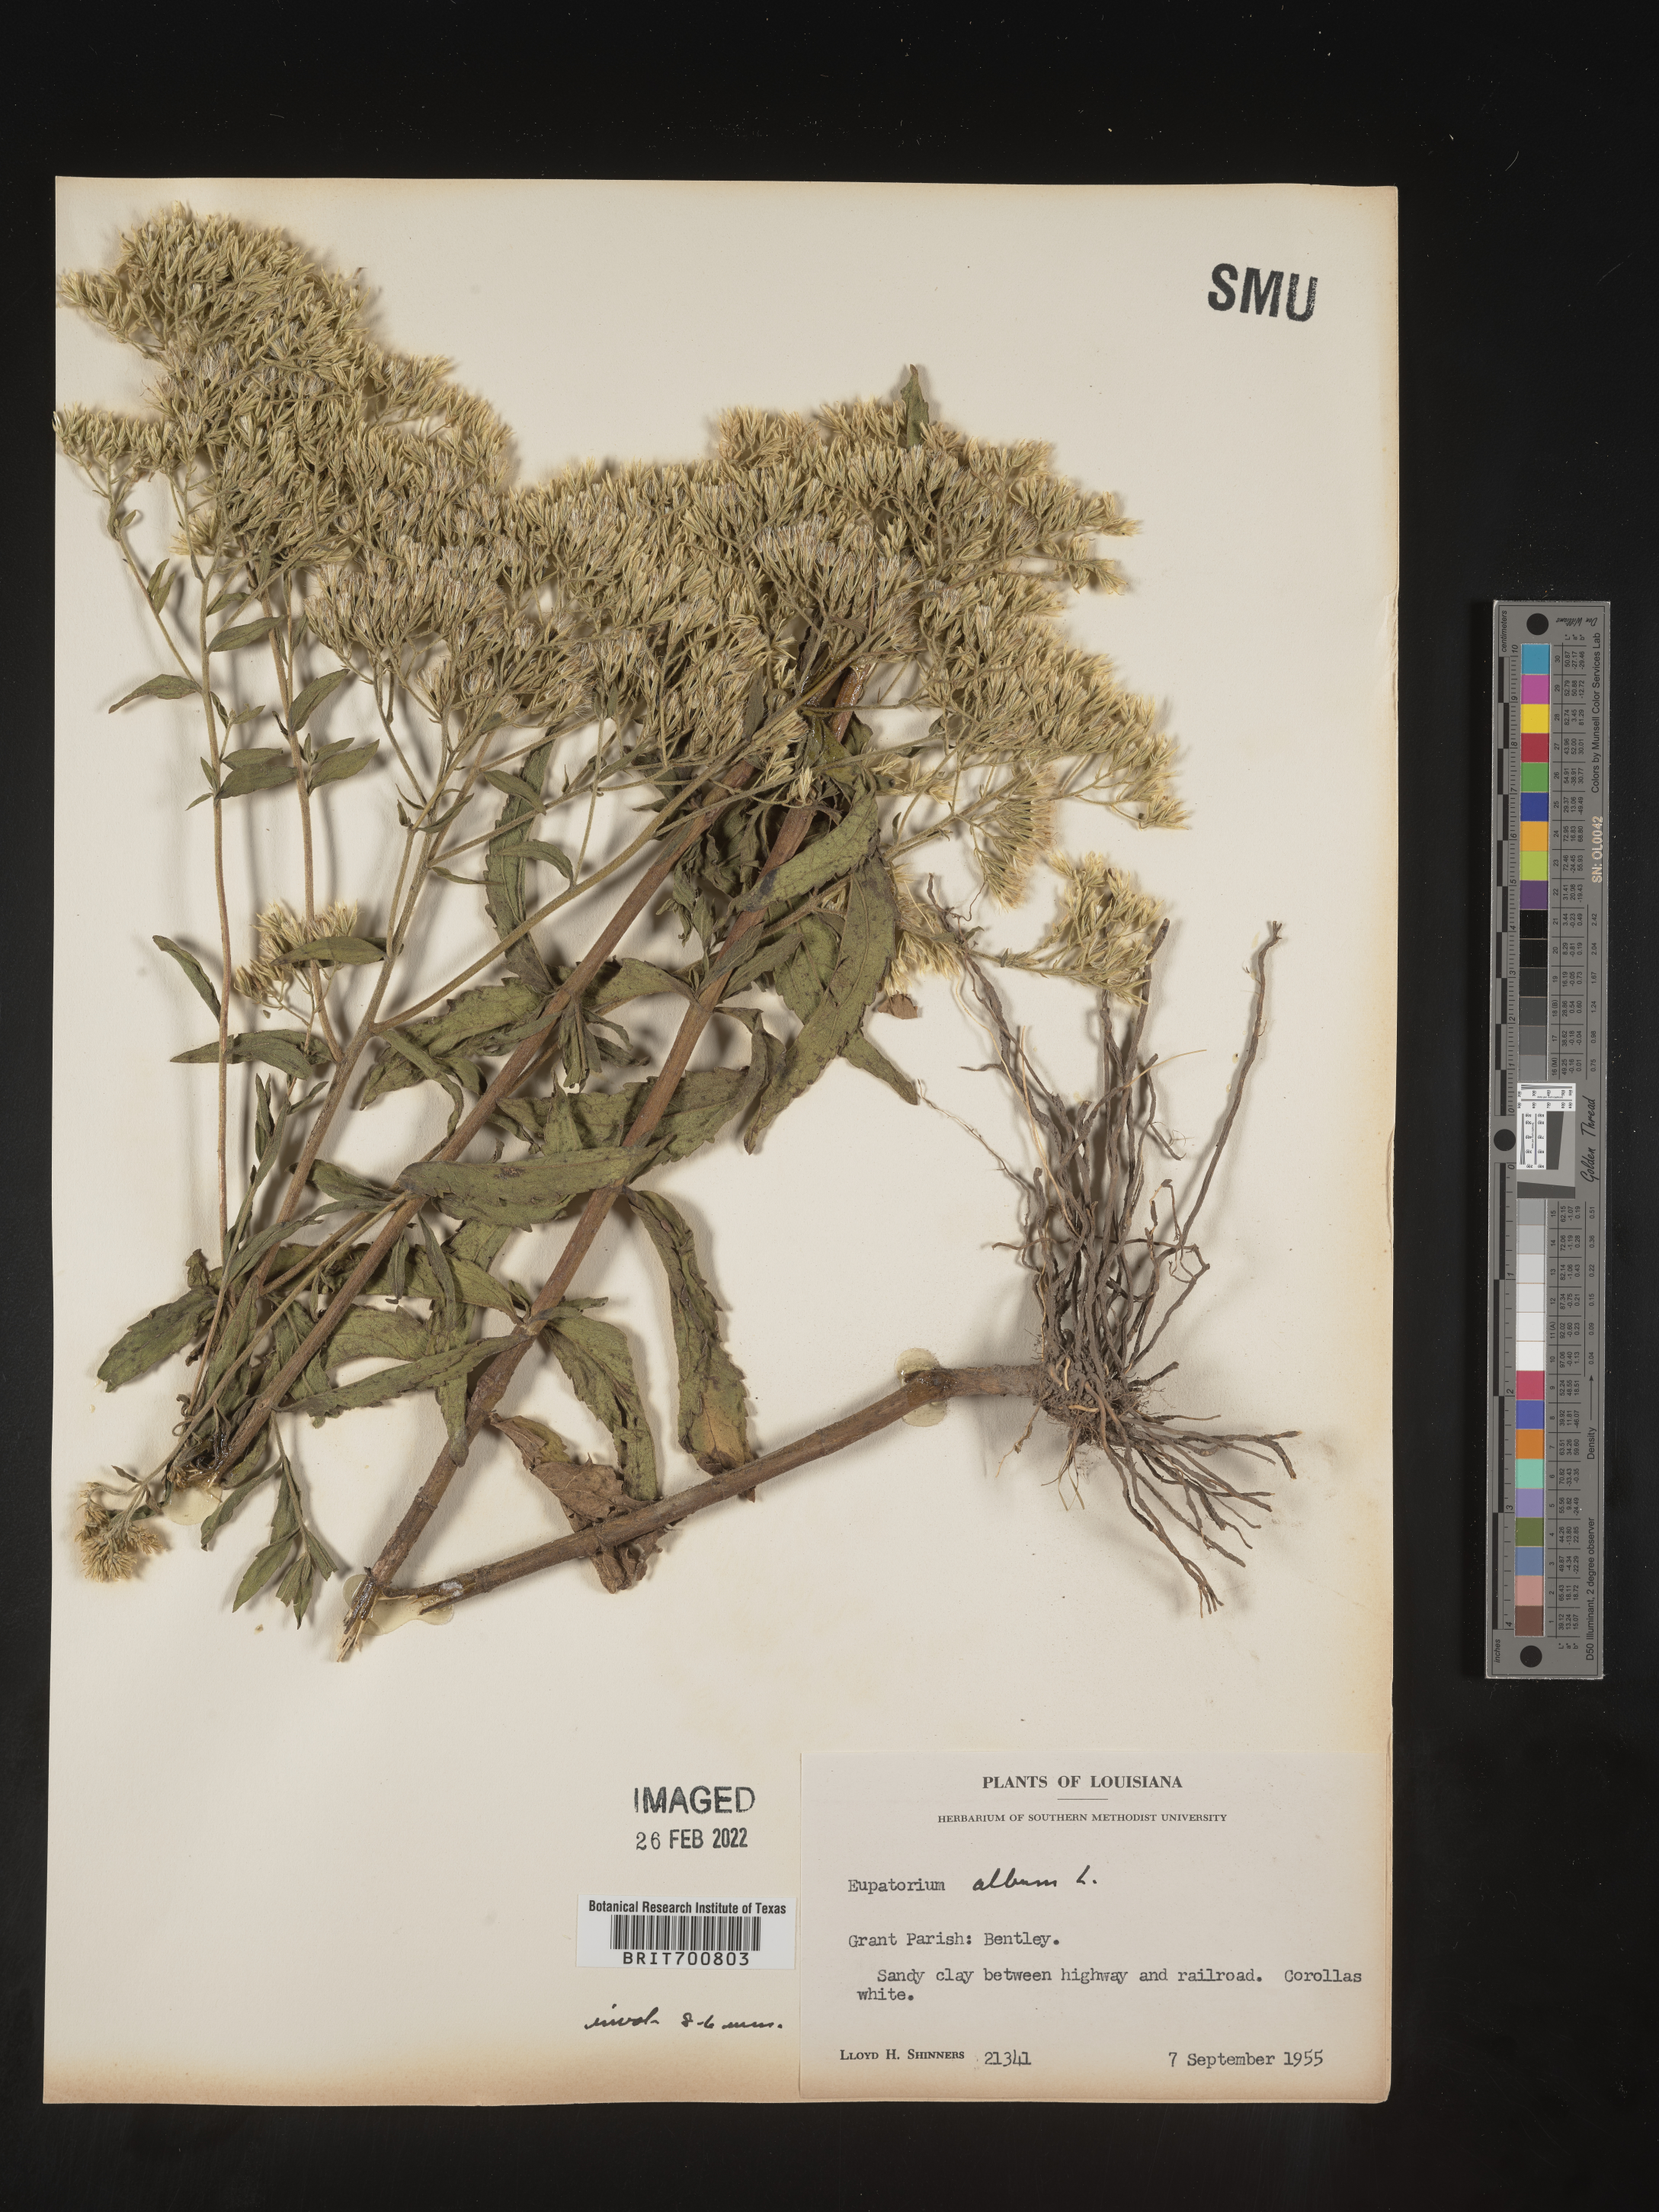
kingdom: Plantae
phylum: Tracheophyta
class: Magnoliopsida
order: Asterales
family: Asteraceae
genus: Eupatorium
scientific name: Eupatorium album
